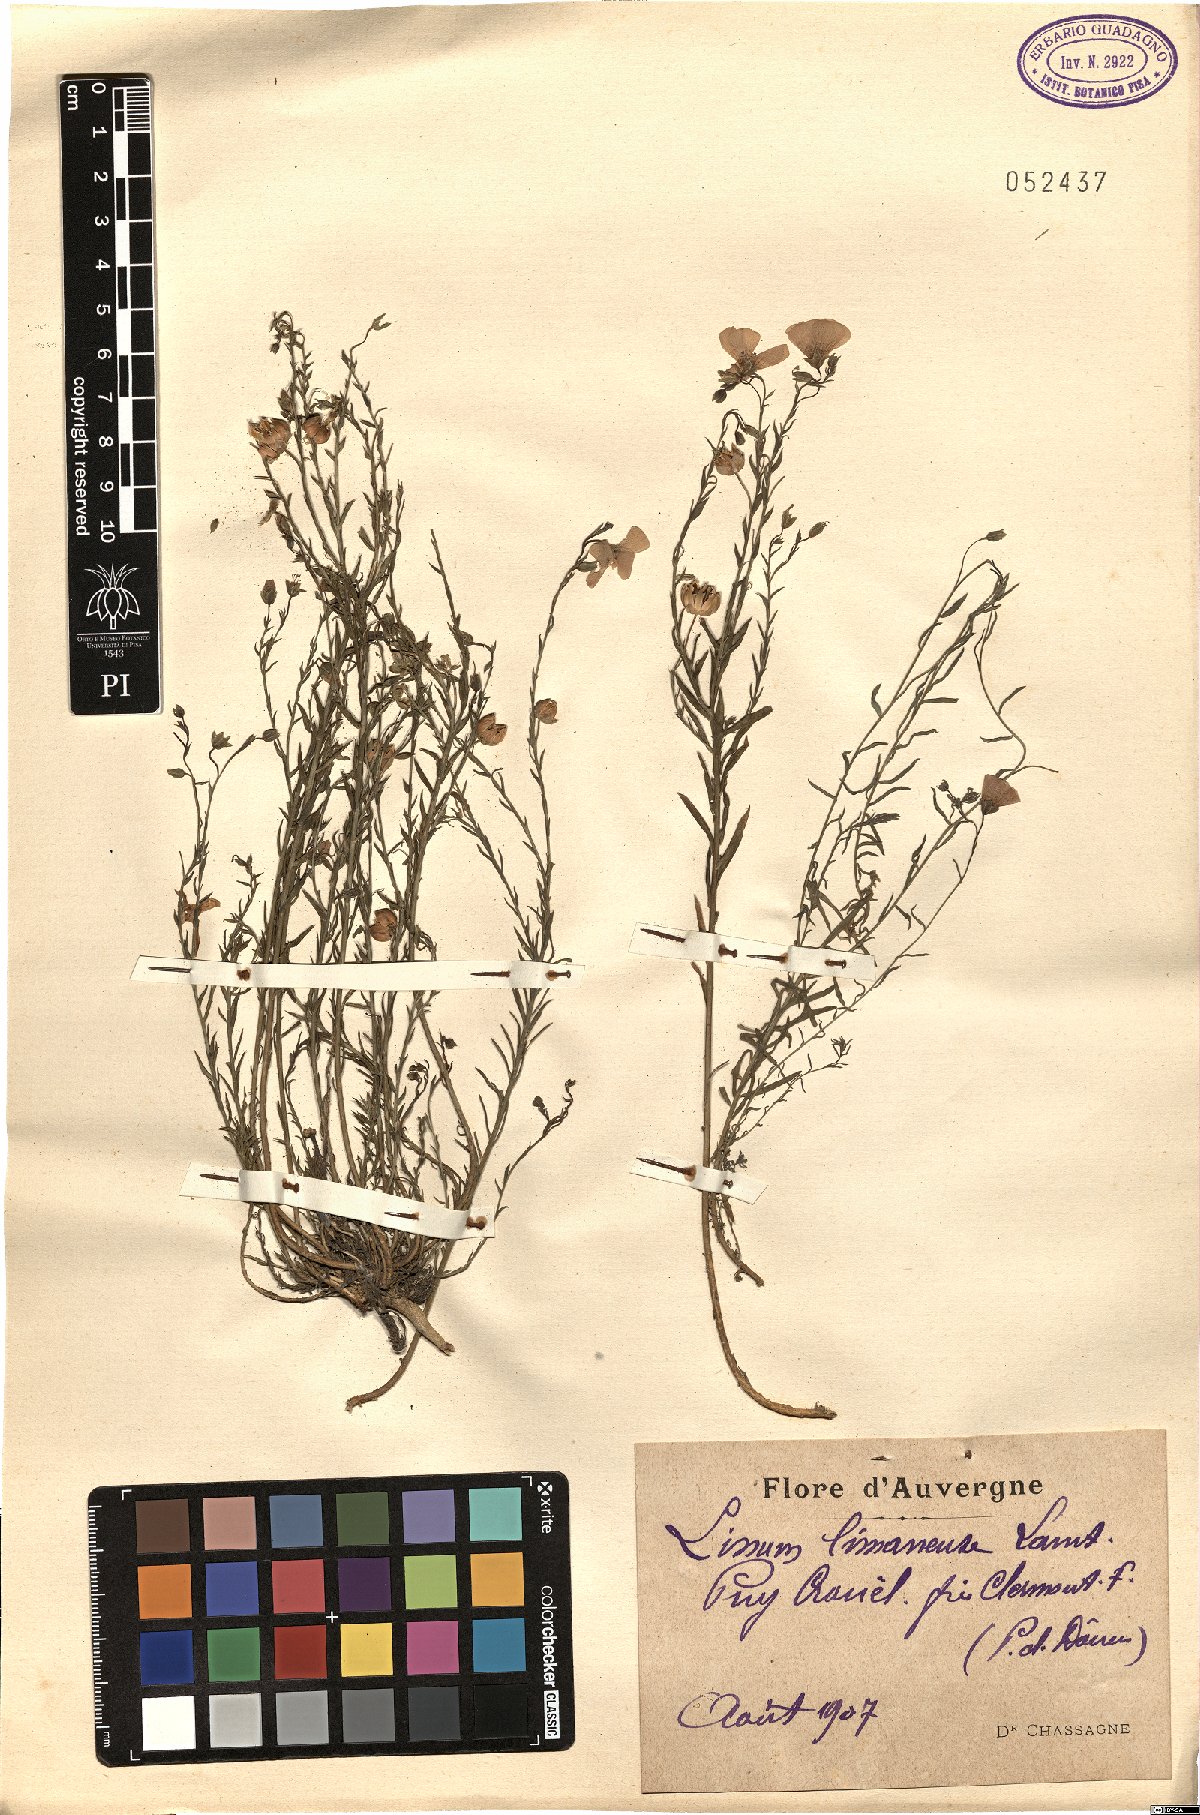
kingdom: Plantae
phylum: Tracheophyta
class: Magnoliopsida
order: Malpighiales
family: Linaceae
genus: Linum
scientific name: Linum
